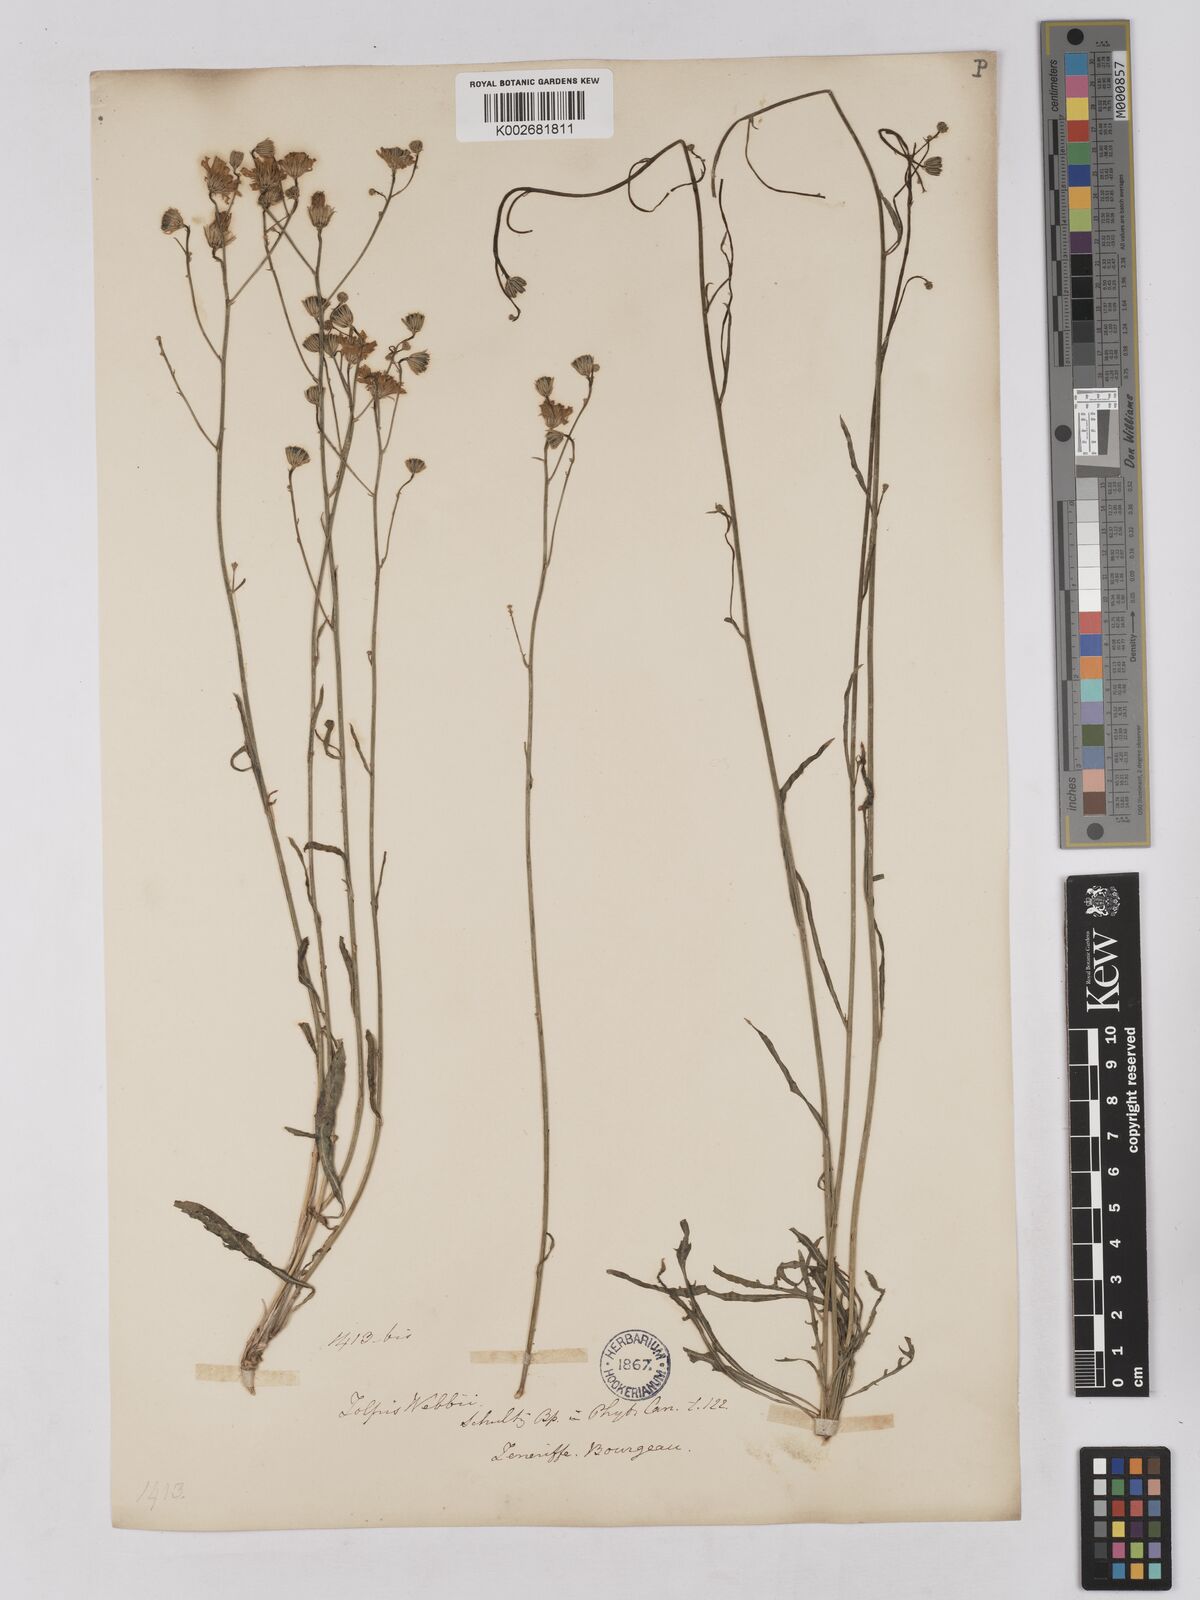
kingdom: Plantae
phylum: Tracheophyta
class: Magnoliopsida
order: Asterales
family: Asteraceae
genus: Tolpis
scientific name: Tolpis webbii
